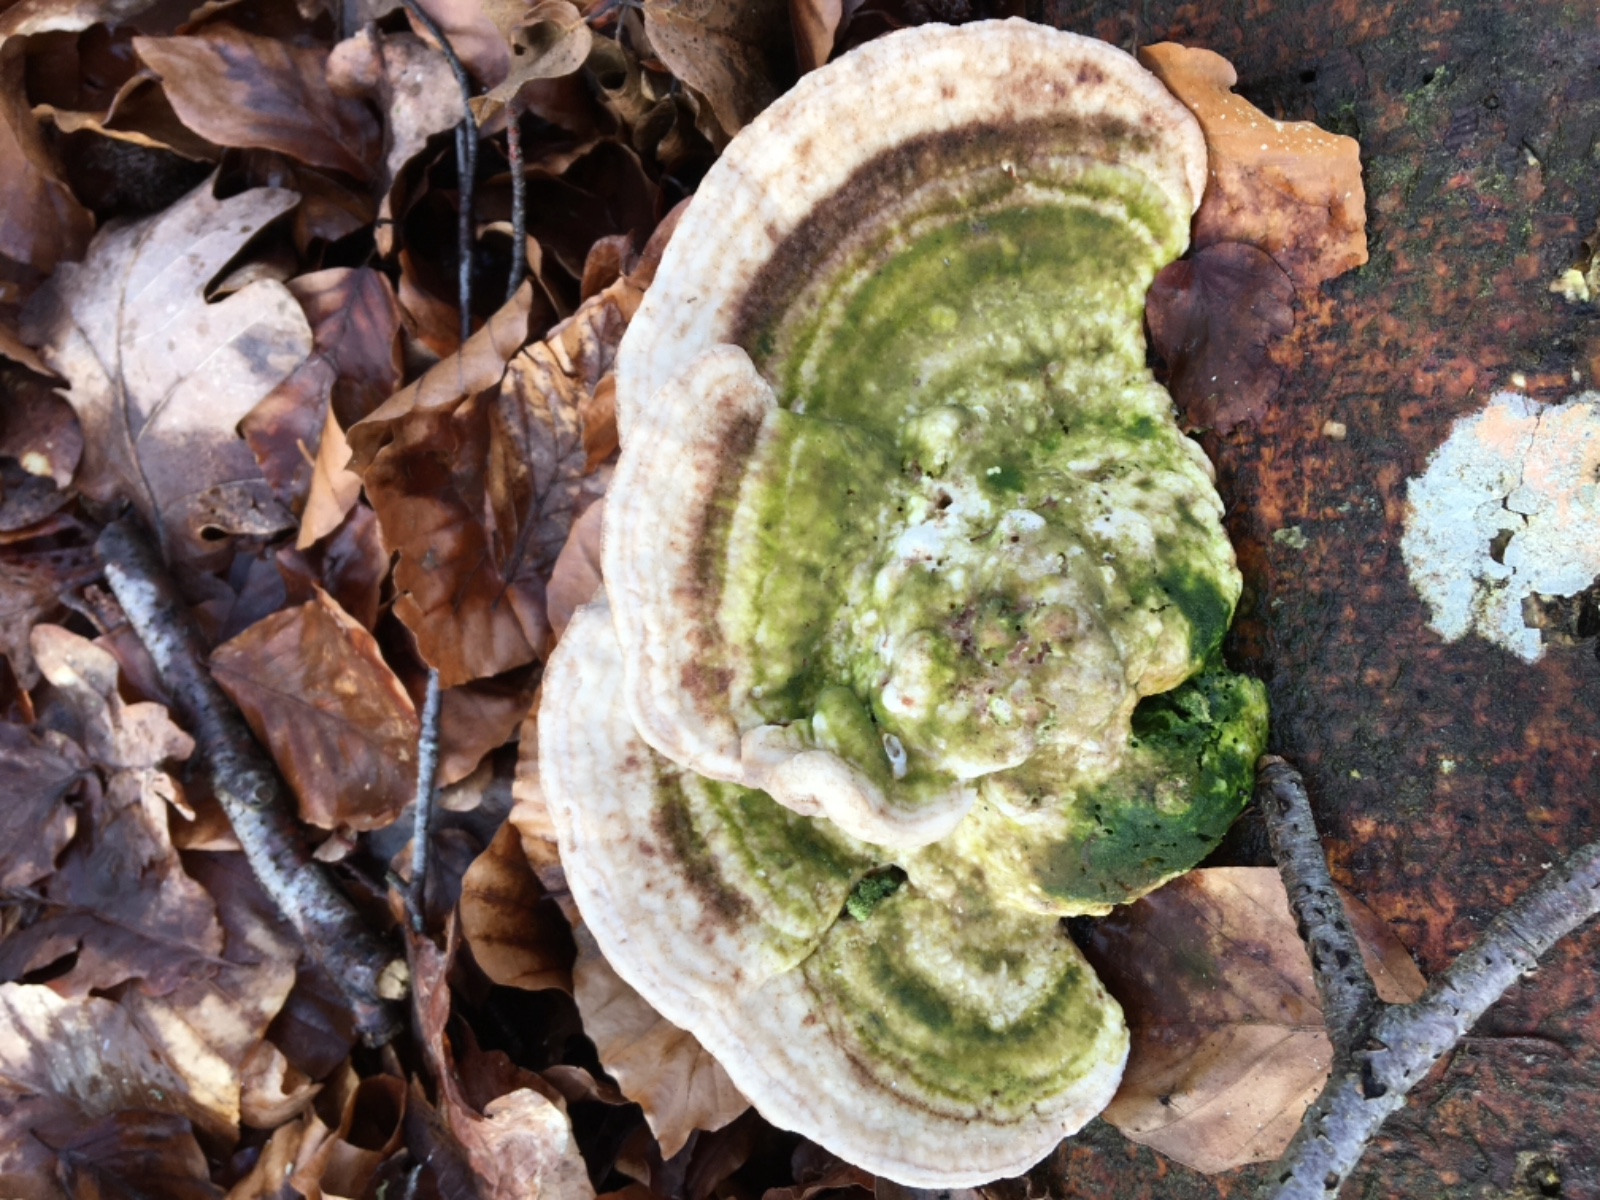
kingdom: Fungi
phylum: Basidiomycota
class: Agaricomycetes
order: Polyporales
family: Polyporaceae
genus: Trametes
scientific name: Trametes gibbosa
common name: puklet læderporesvamp
